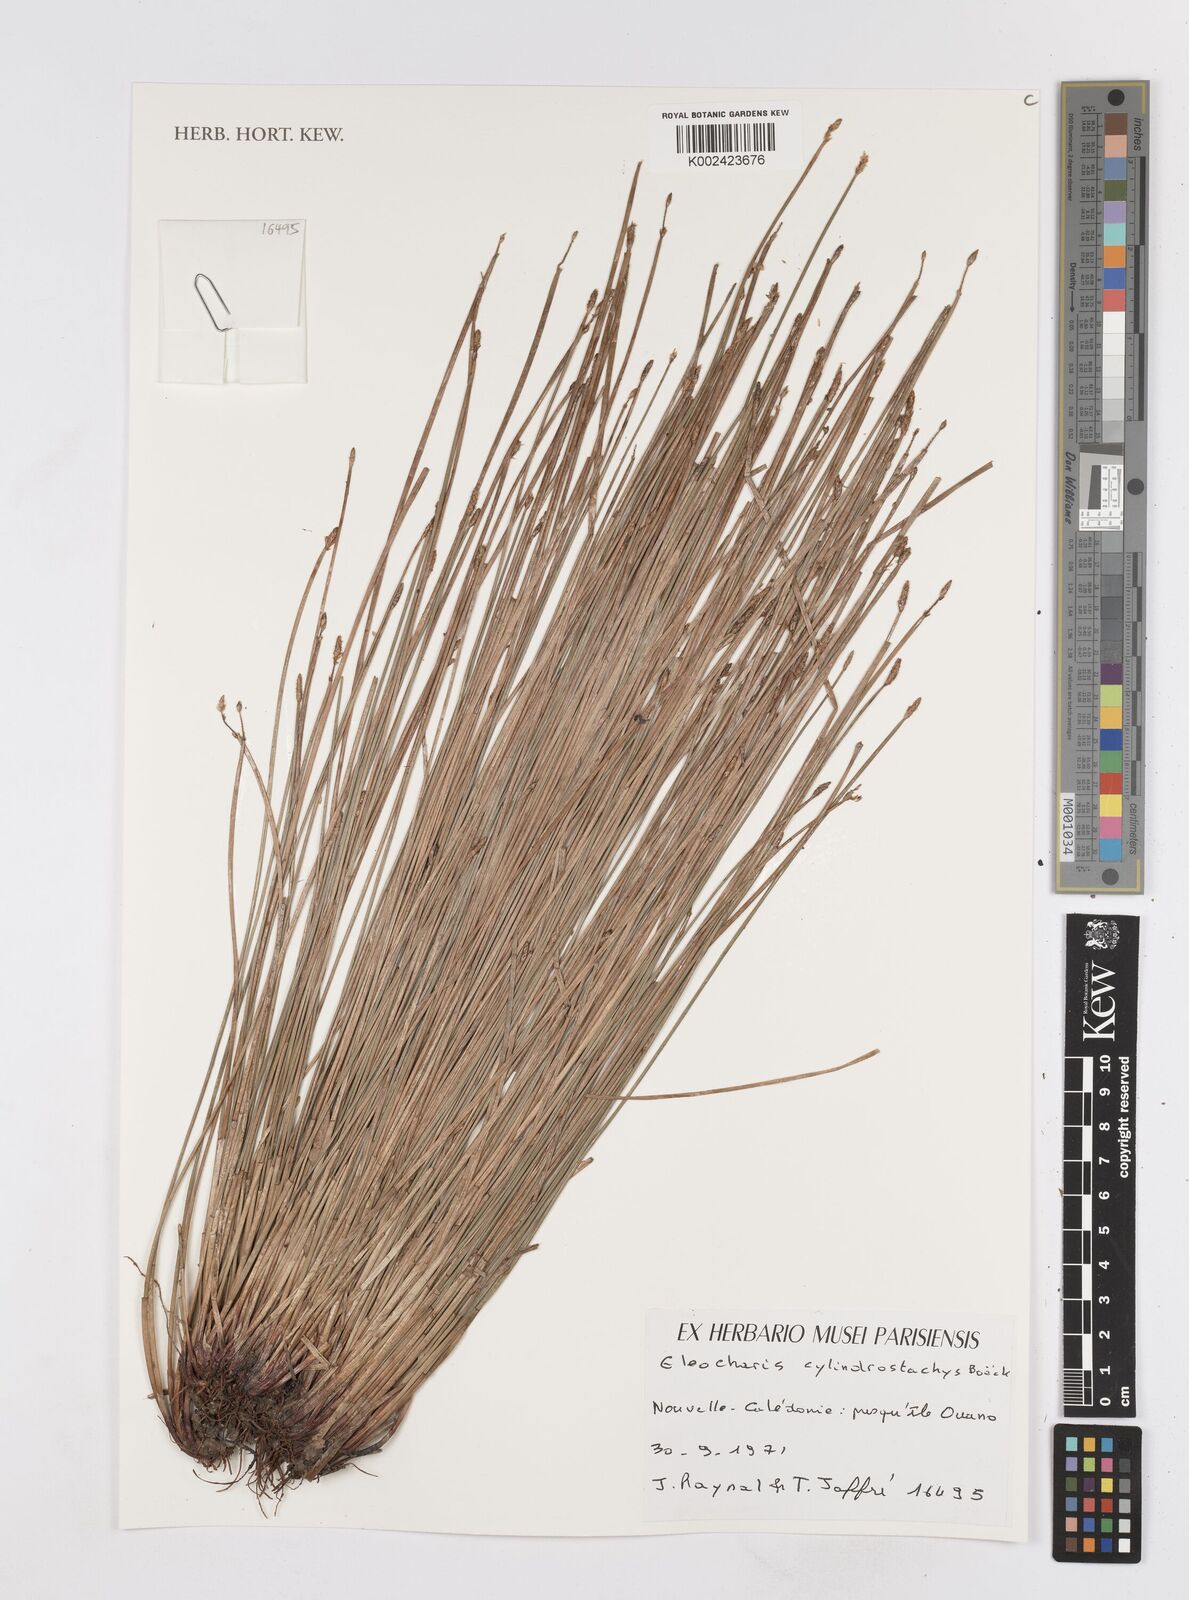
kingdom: Plantae
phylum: Tracheophyta
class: Liliopsida
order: Poales
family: Cyperaceae
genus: Eleocharis
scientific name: Eleocharis cylindrostachys
